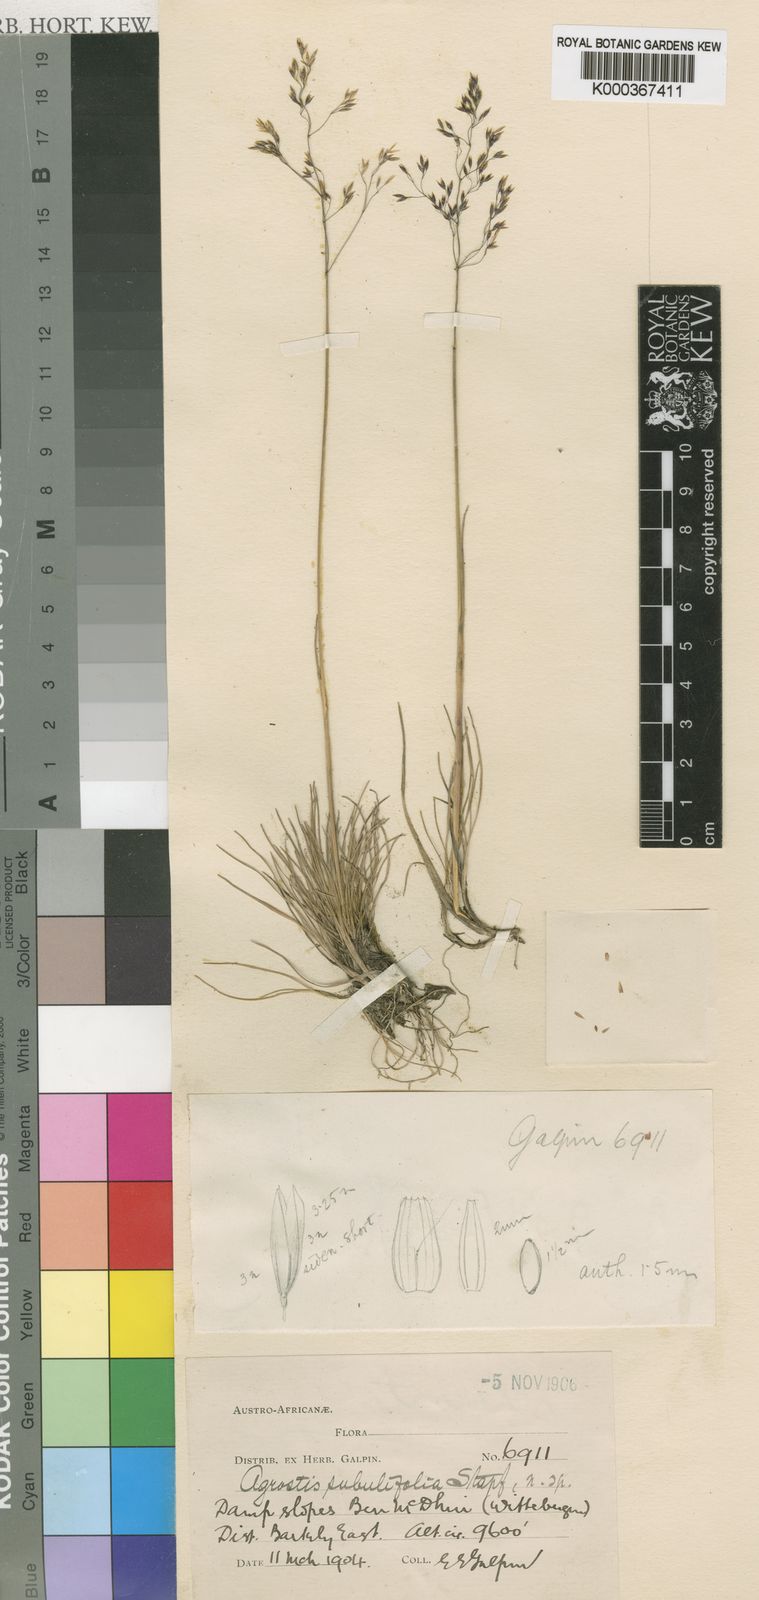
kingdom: Plantae
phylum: Tracheophyta
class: Liliopsida
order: Poales
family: Poaceae
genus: Agrostis
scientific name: Agrostis subulifolia
